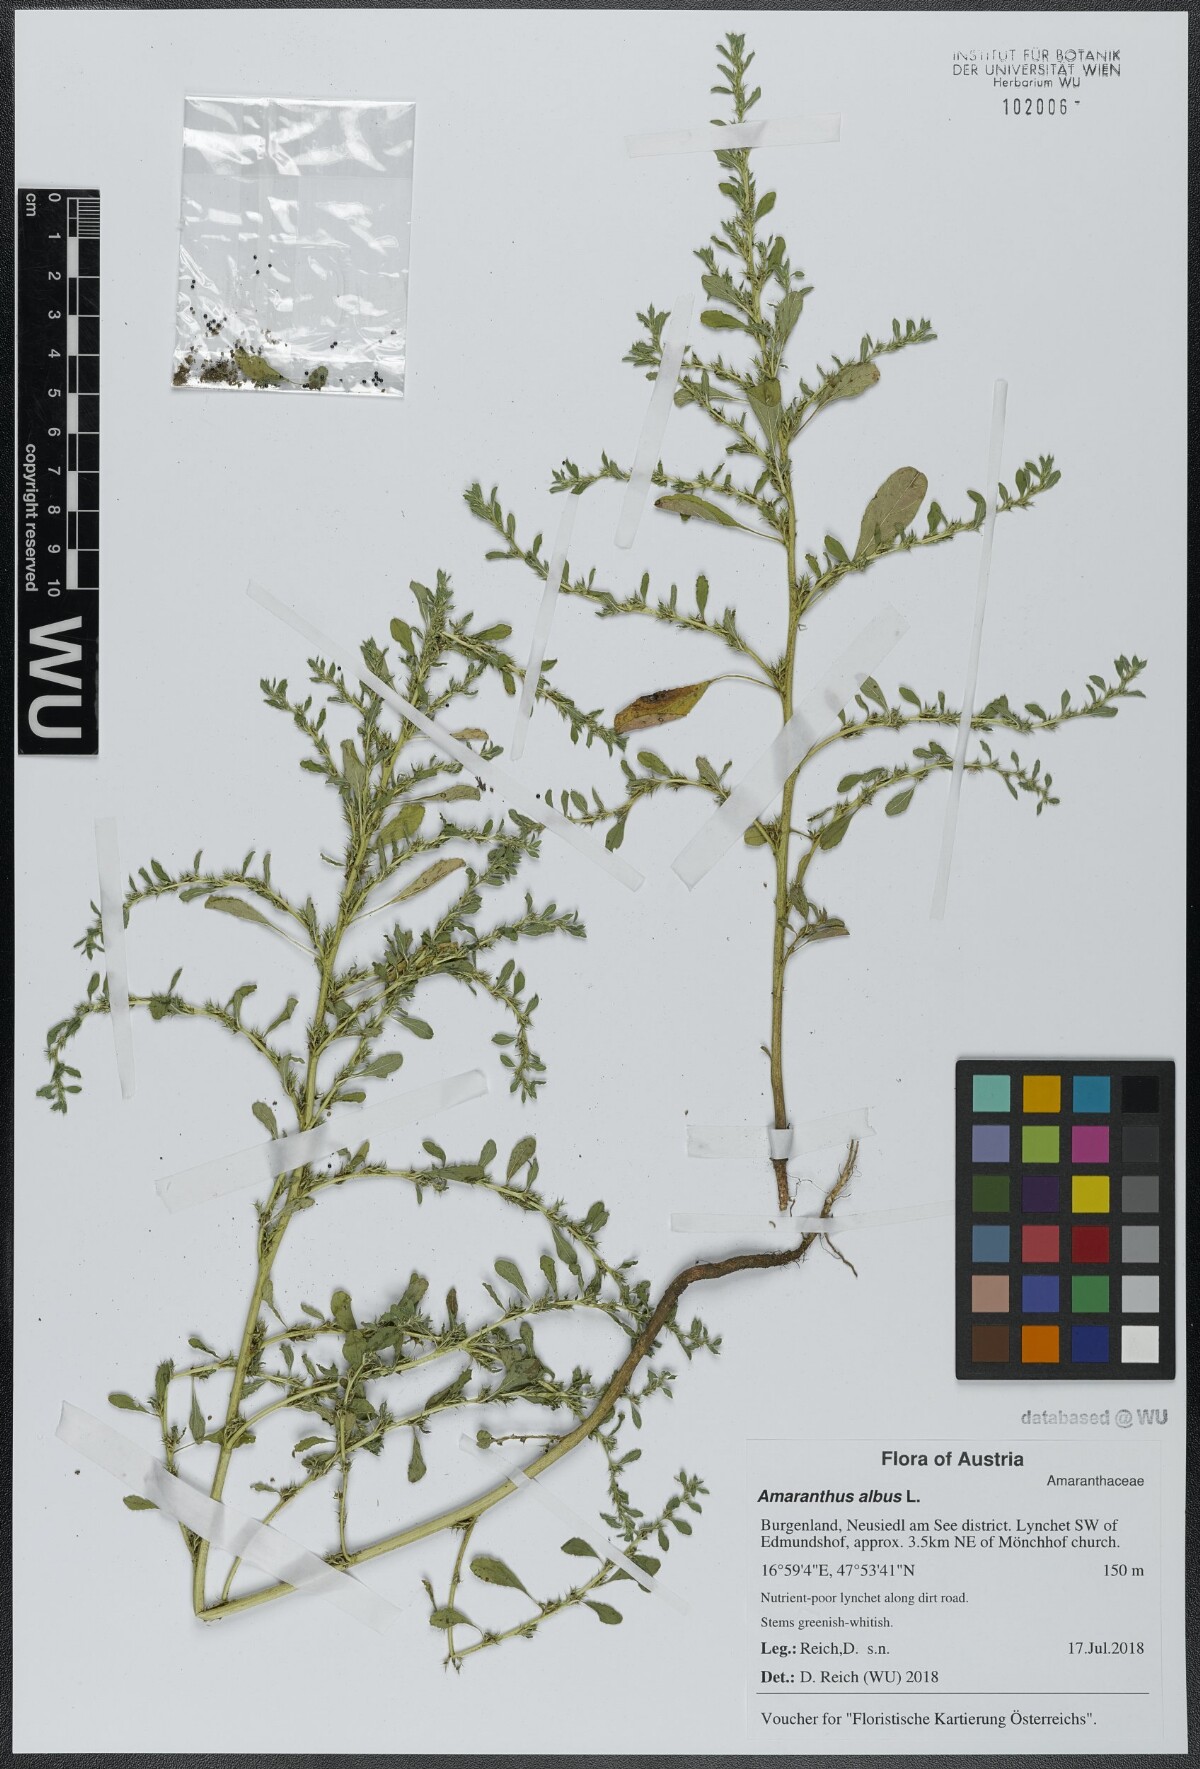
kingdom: Plantae
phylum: Tracheophyta
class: Magnoliopsida
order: Caryophyllales
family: Amaranthaceae
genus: Amaranthus
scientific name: Amaranthus albus
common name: White pigweed
